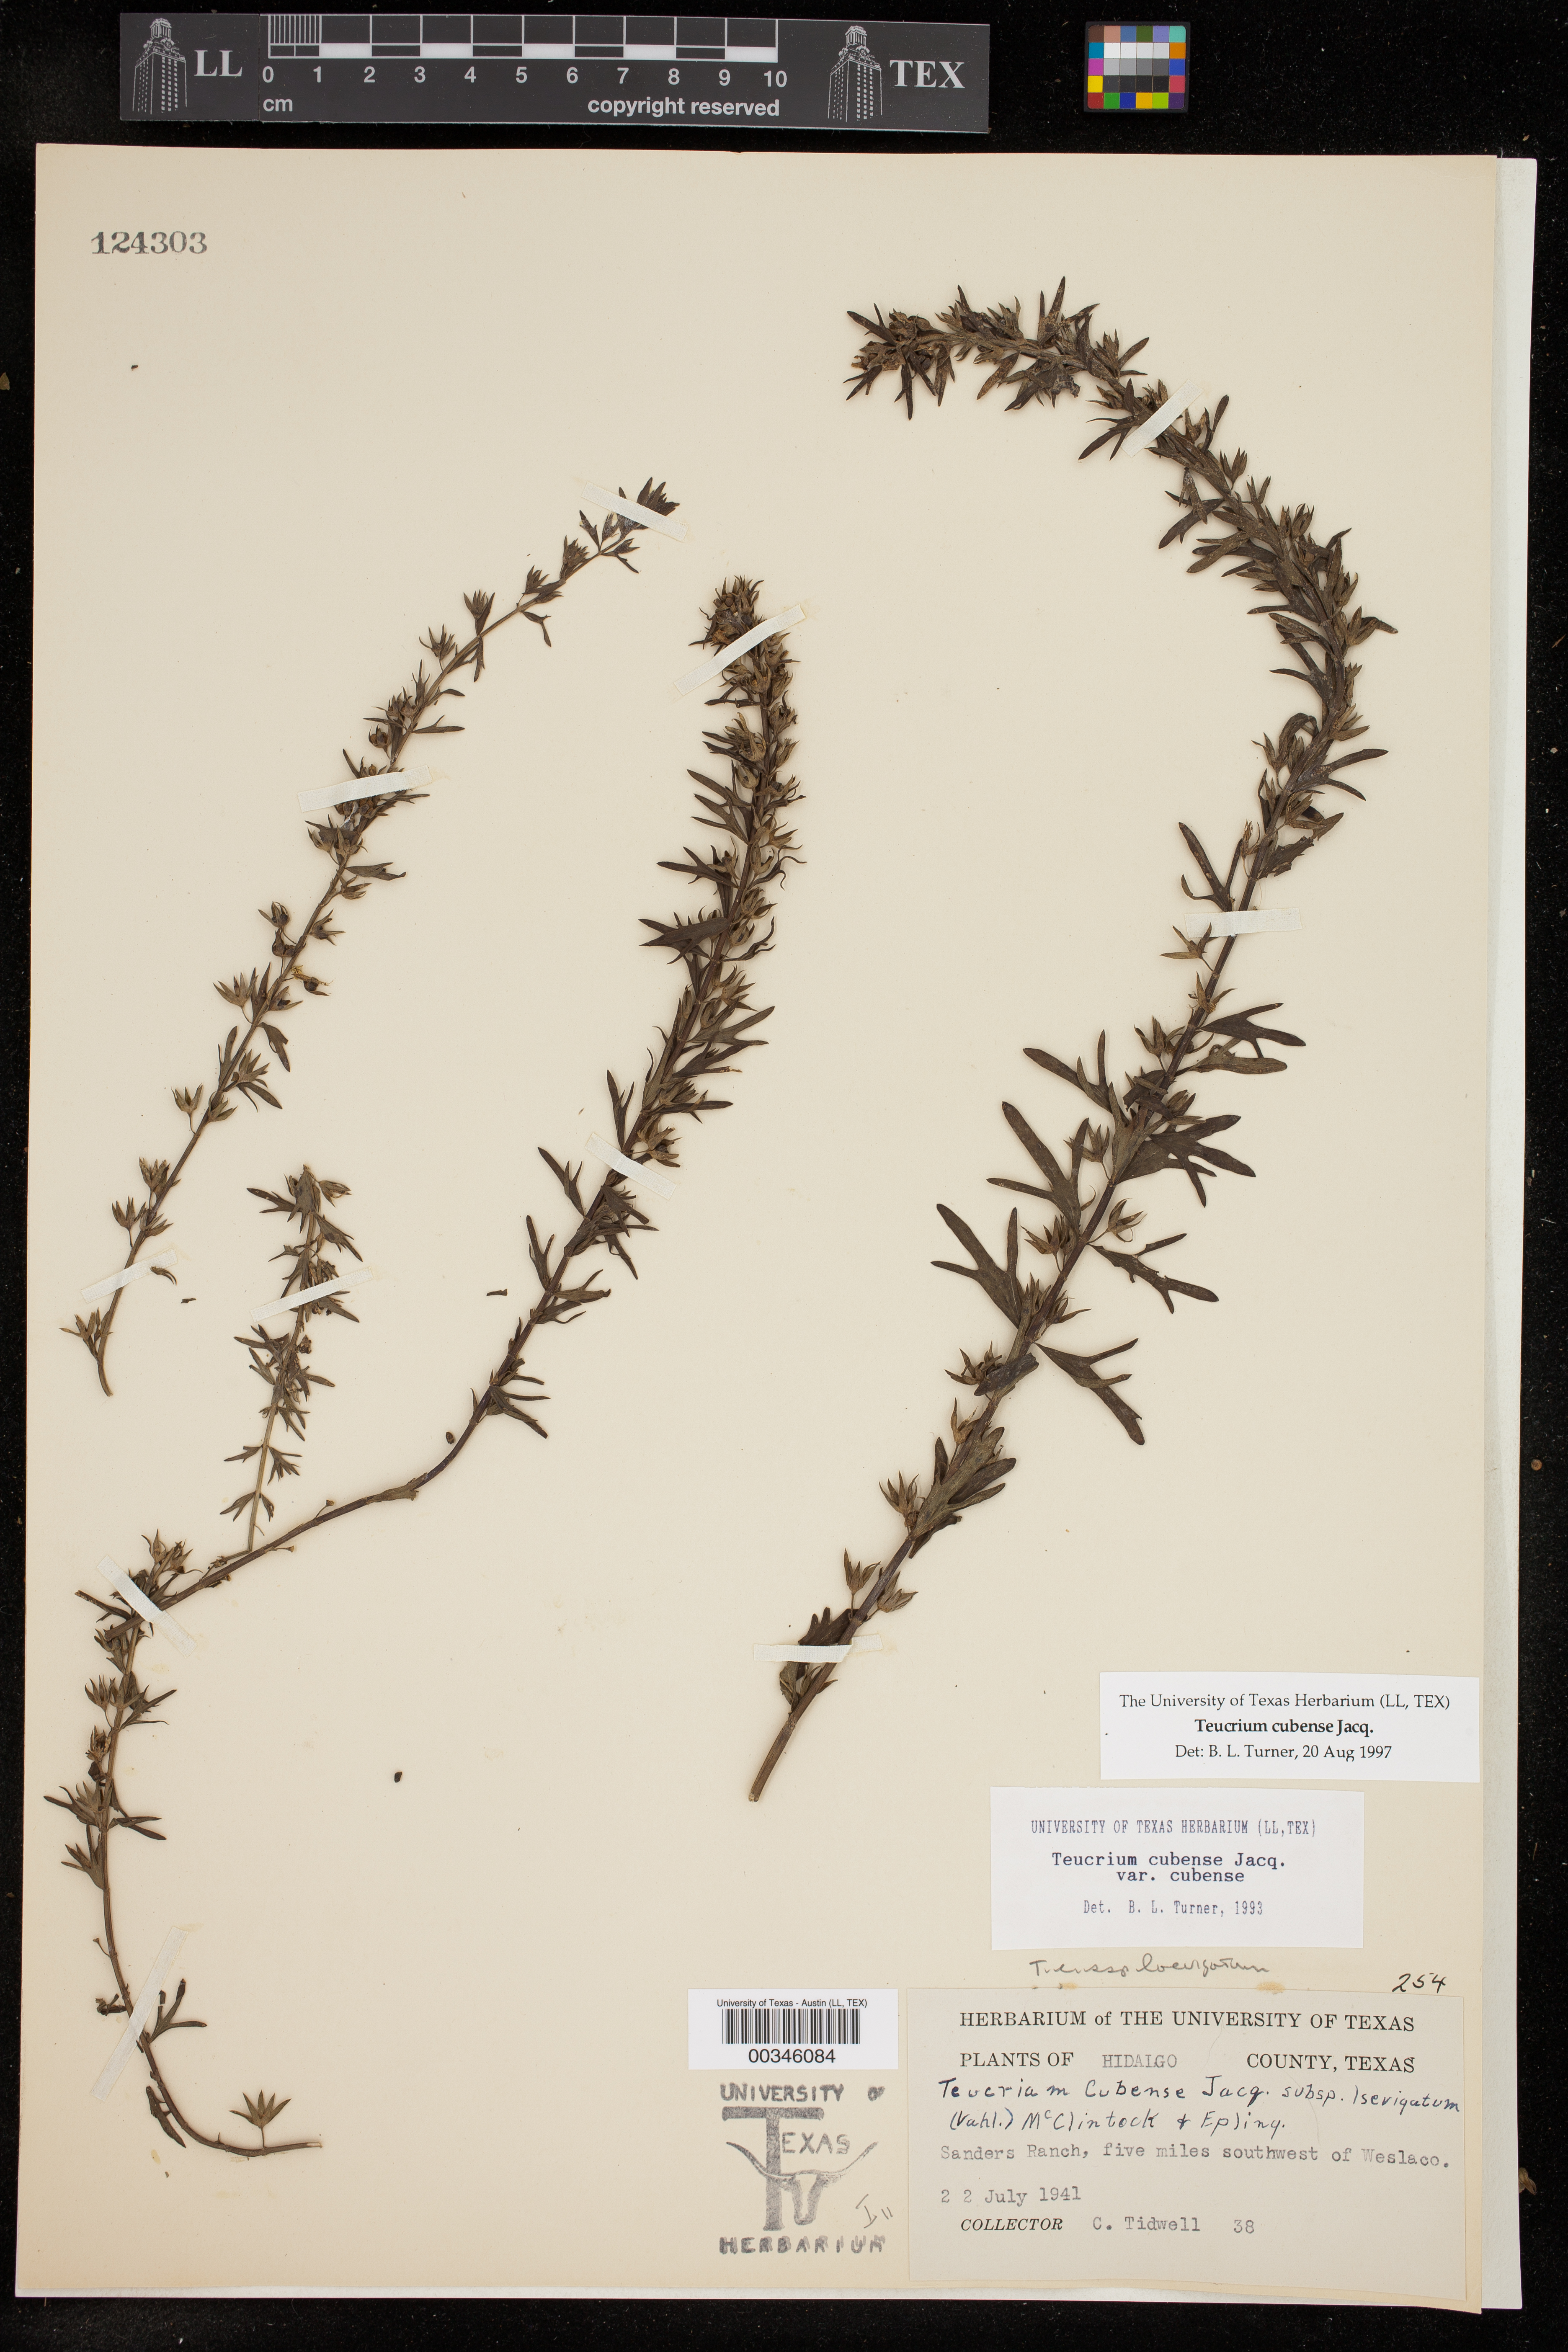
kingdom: Plantae
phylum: Tracheophyta
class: Magnoliopsida
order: Lamiales
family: Lamiaceae
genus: Teucrium
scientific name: Teucrium cubense
